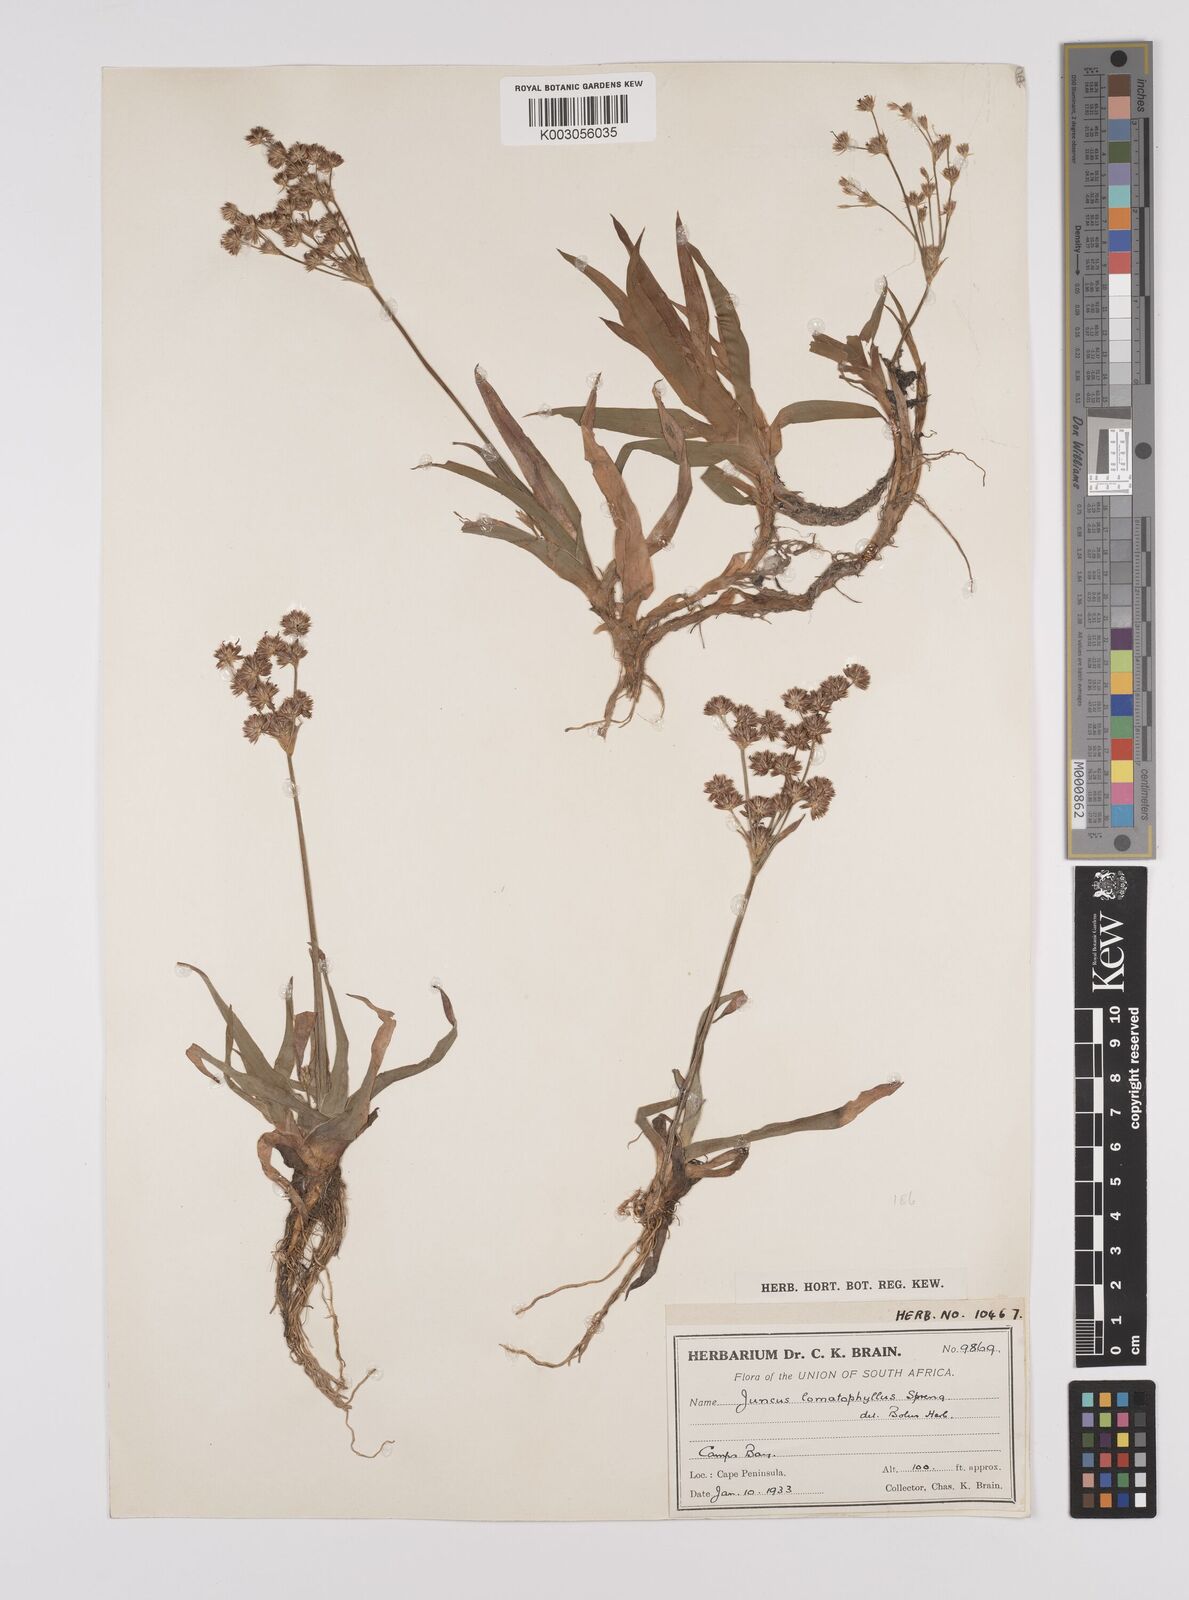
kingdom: Plantae
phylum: Tracheophyta
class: Liliopsida
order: Poales
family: Juncaceae
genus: Juncus
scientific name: Juncus lomatophyllus
